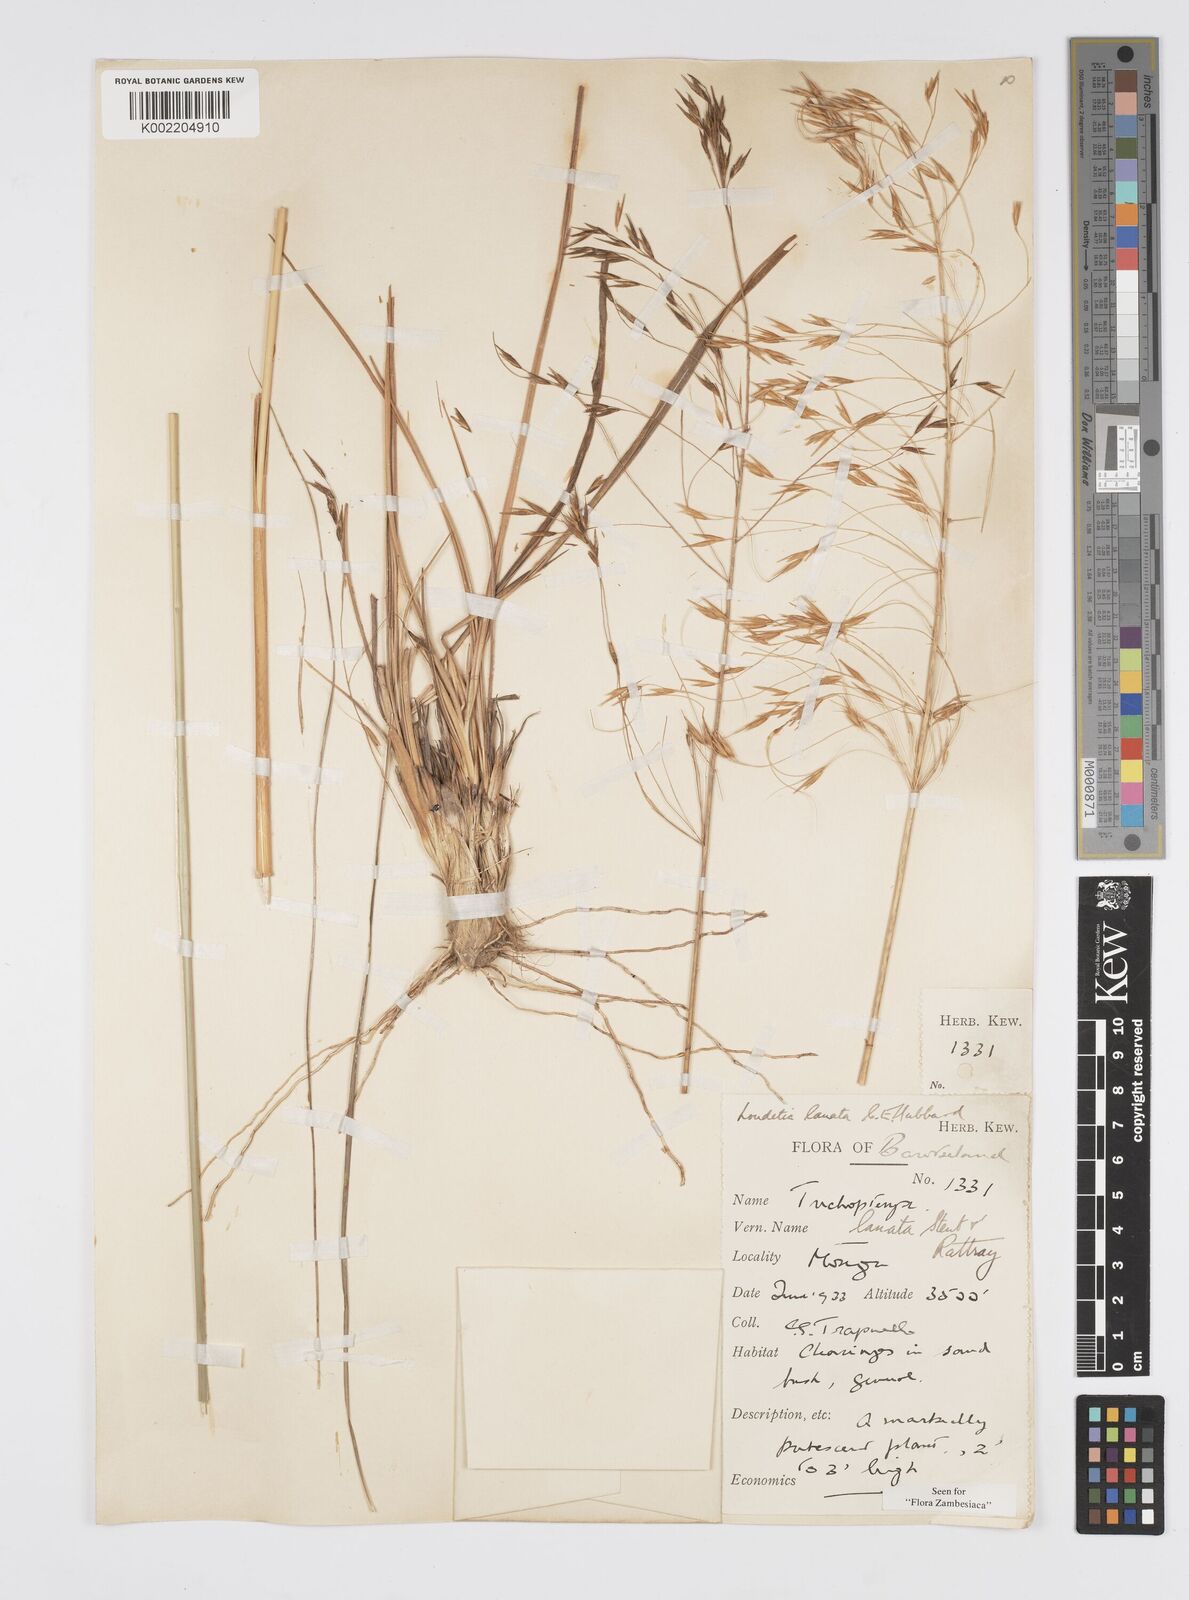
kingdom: Plantae
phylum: Tracheophyta
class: Liliopsida
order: Poales
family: Poaceae
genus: Loudetia
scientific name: Loudetia lanata
